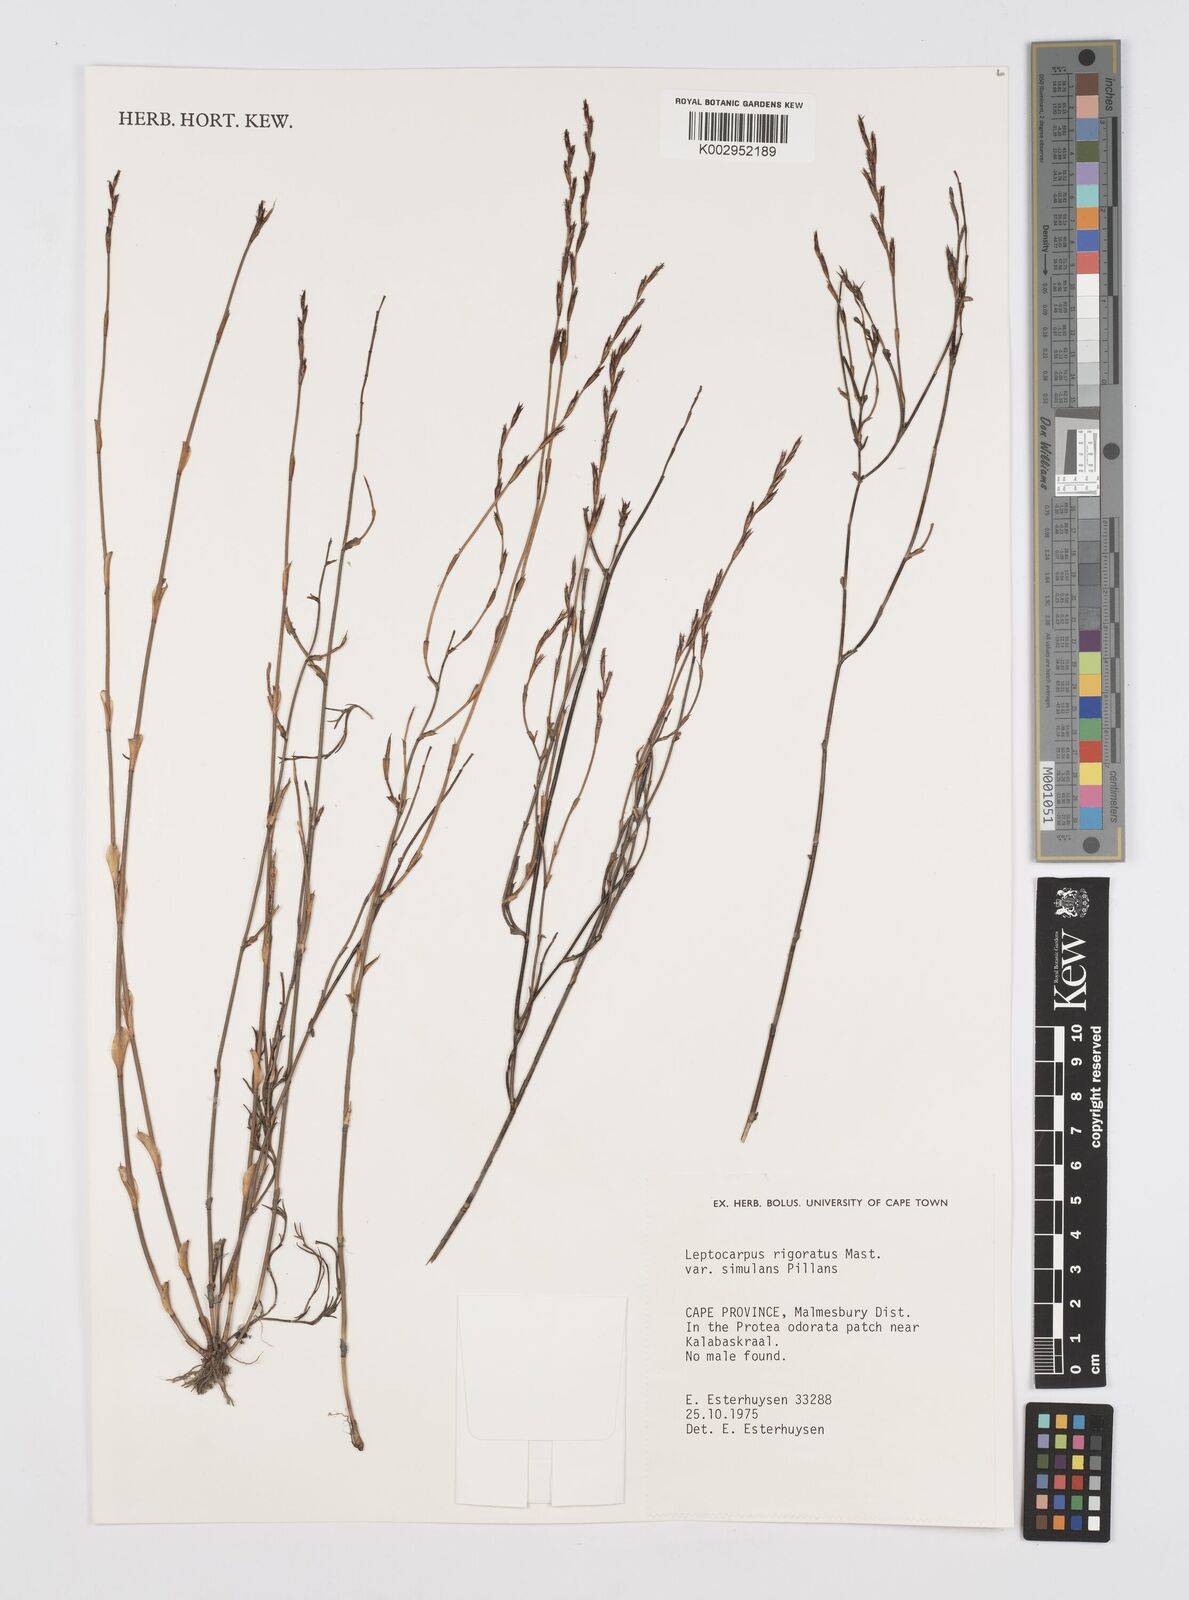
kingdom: Plantae
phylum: Tracheophyta
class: Liliopsida
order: Poales
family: Restionaceae
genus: Restio
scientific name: Restio rigoratus
